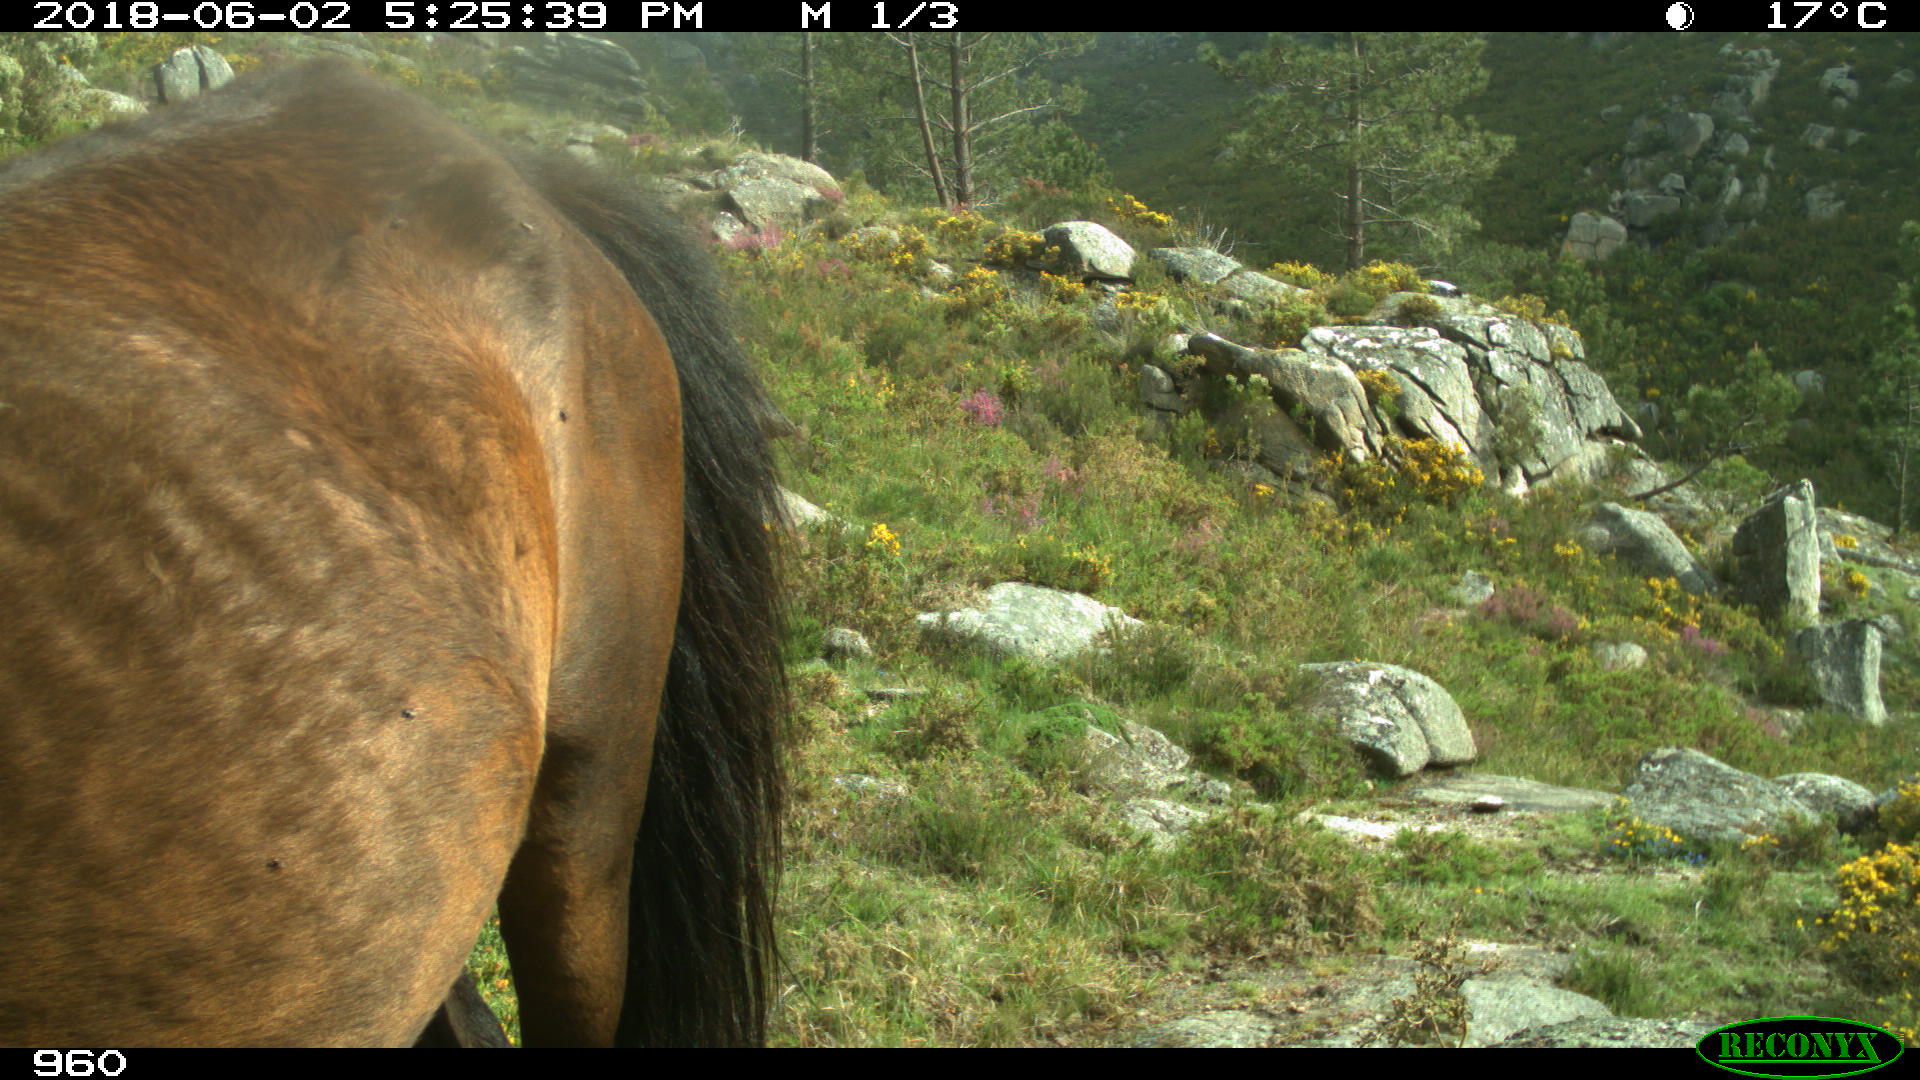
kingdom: Animalia
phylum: Chordata
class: Mammalia
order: Perissodactyla
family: Equidae
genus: Equus
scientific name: Equus caballus
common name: Horse
